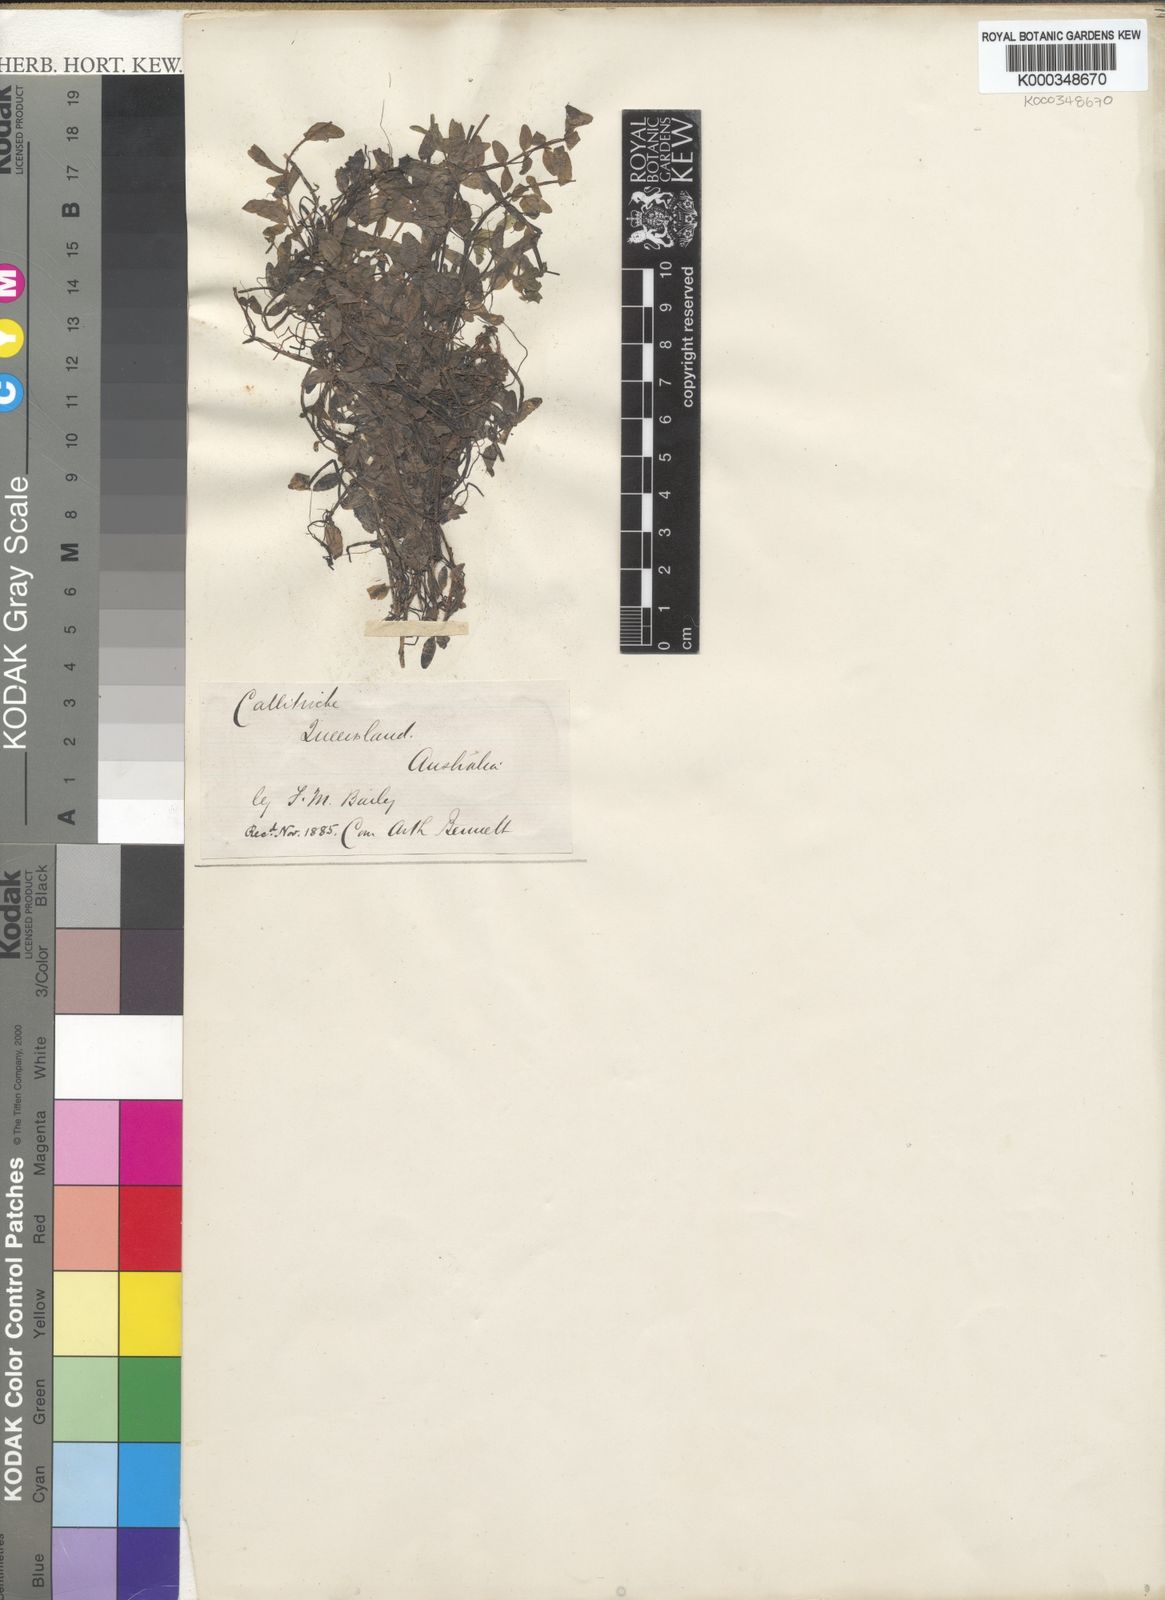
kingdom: Plantae
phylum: Tracheophyta
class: Magnoliopsida
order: Lamiales
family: Plantaginaceae
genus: Callitriche
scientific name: Callitriche
